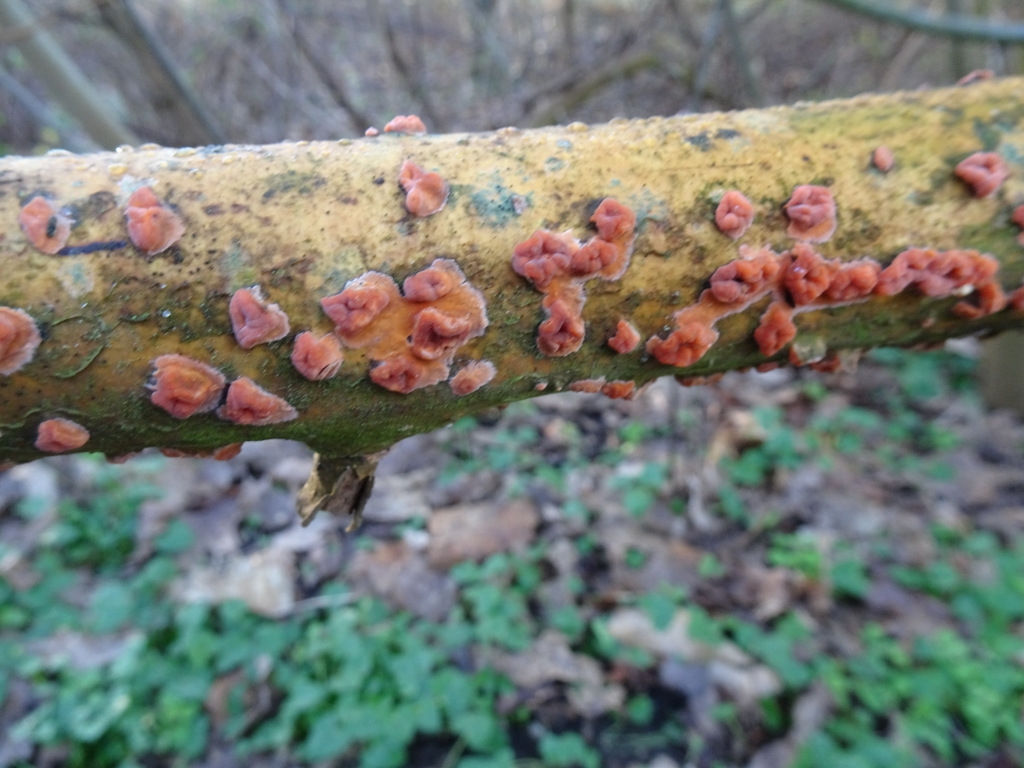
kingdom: Fungi
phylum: Basidiomycota
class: Agaricomycetes
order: Russulales
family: Peniophoraceae
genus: Peniophora
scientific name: Peniophora
